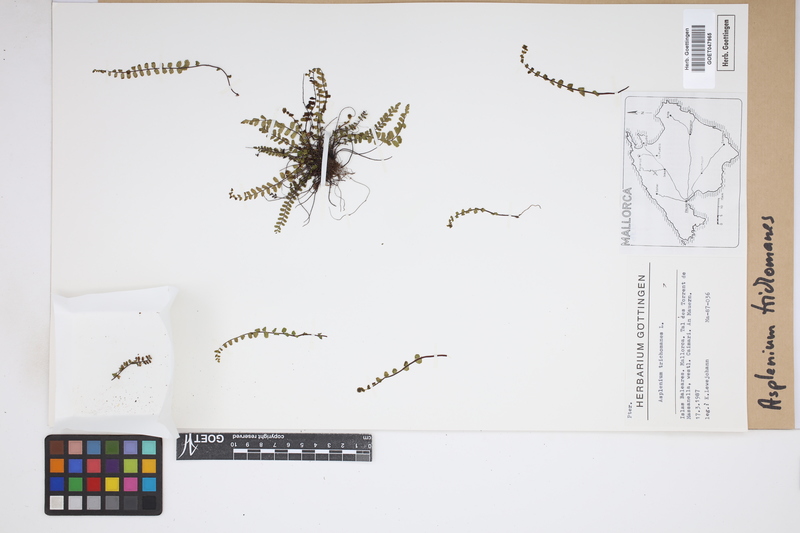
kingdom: Plantae
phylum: Tracheophyta
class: Polypodiopsida
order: Polypodiales
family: Aspleniaceae
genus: Asplenium
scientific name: Asplenium trichomanes
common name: Maidenhair spleenwort
